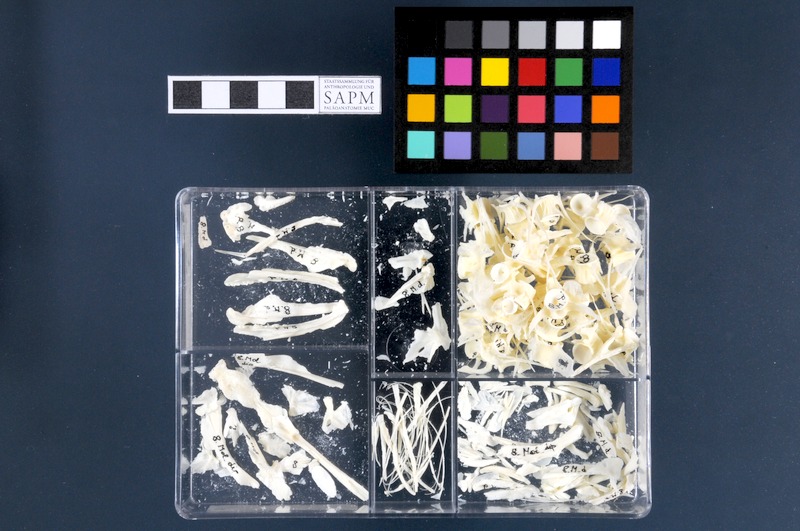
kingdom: Animalia
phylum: Chordata
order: Gadiformes
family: Lotidae
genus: Molva
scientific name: Molva dypterygia
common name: Blue ling
